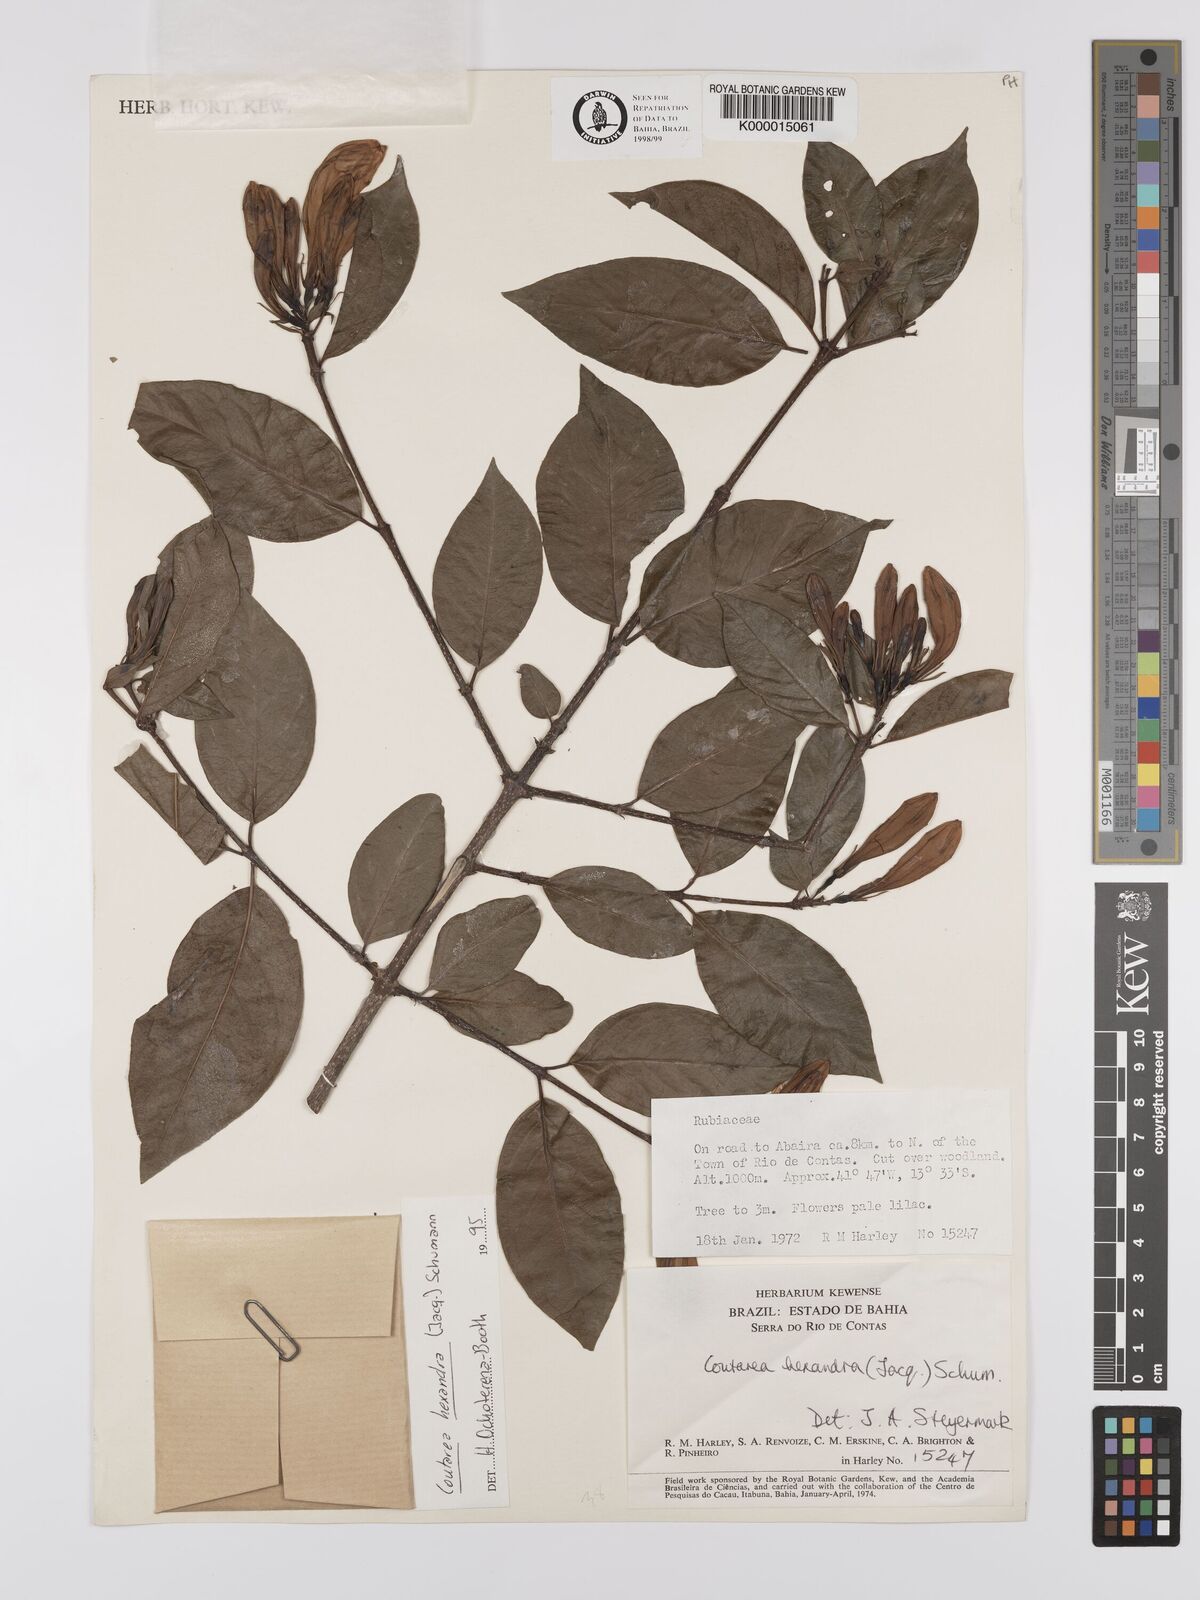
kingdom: Plantae
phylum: Tracheophyta
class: Magnoliopsida
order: Gentianales
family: Rubiaceae
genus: Coutarea
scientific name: Coutarea hexandra
